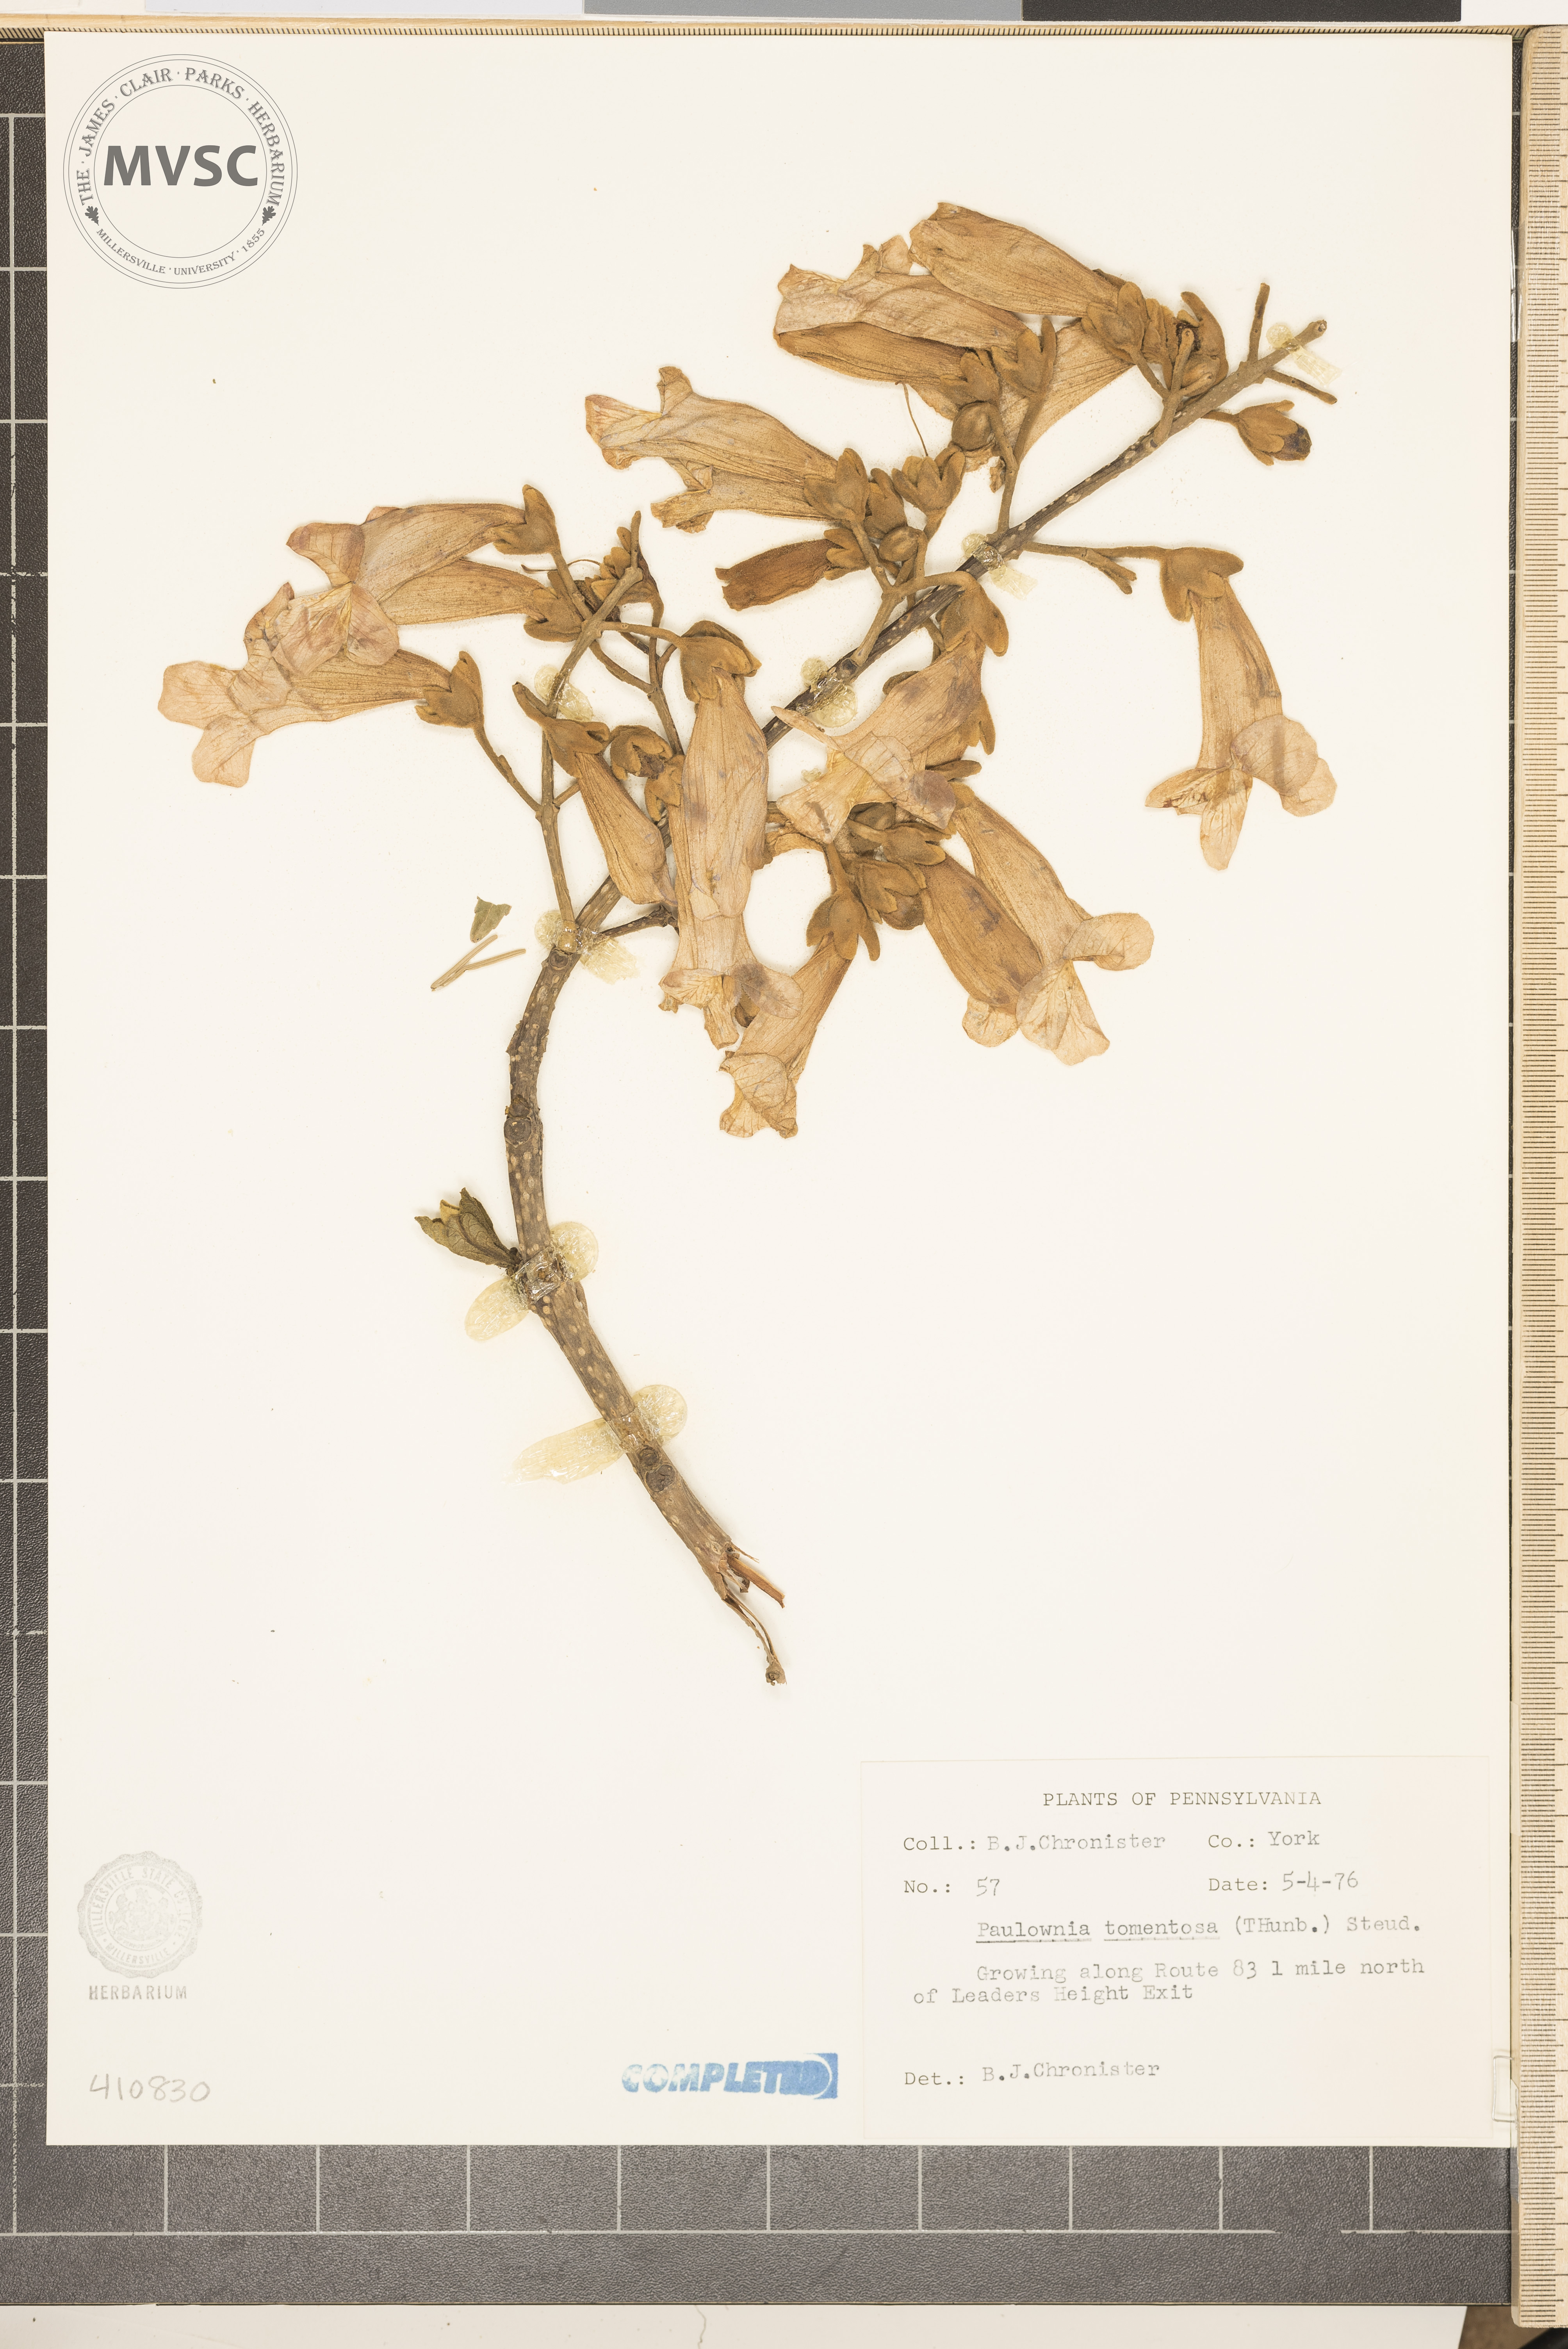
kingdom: Plantae
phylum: Tracheophyta
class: Magnoliopsida
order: Lamiales
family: Paulowniaceae
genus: Paulownia
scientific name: Paulownia tomentosa
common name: Foxglove-tree
